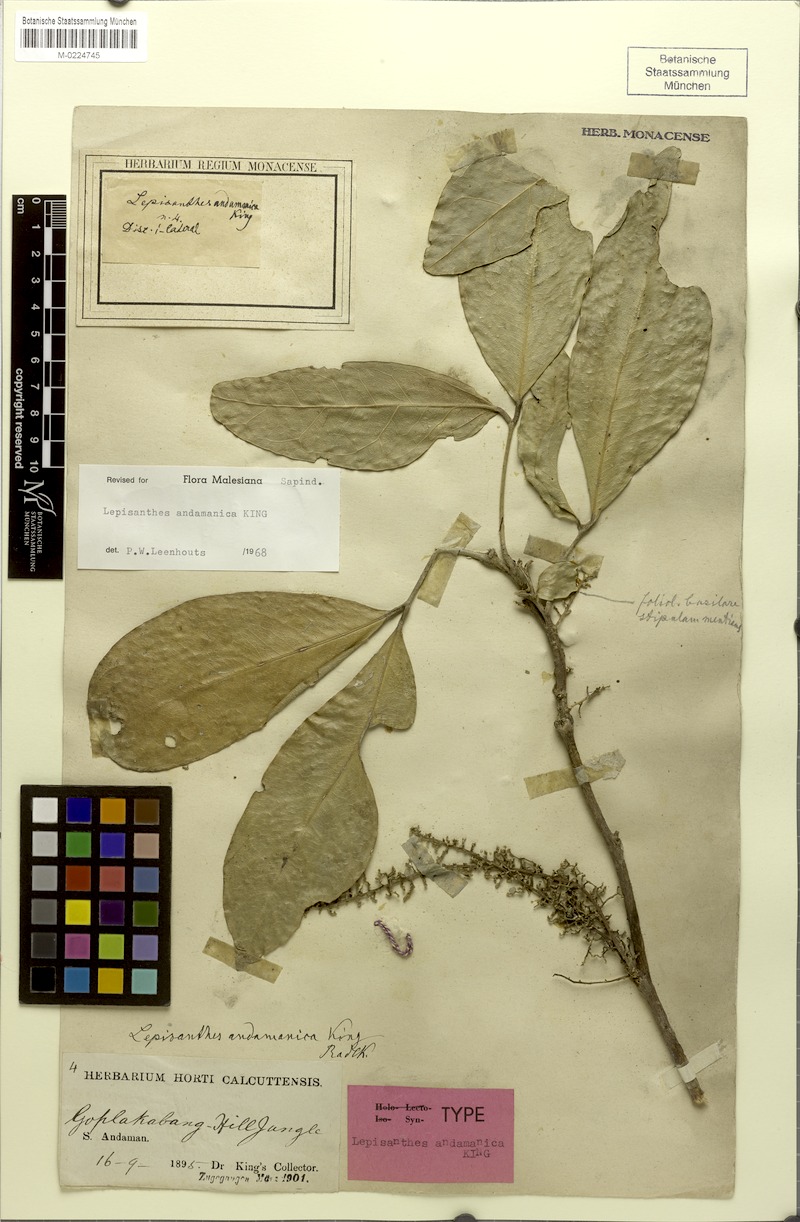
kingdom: Plantae
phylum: Tracheophyta
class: Magnoliopsida
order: Sapindales
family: Sapindaceae
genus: Lepisanthes
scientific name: Lepisanthes andamanica
